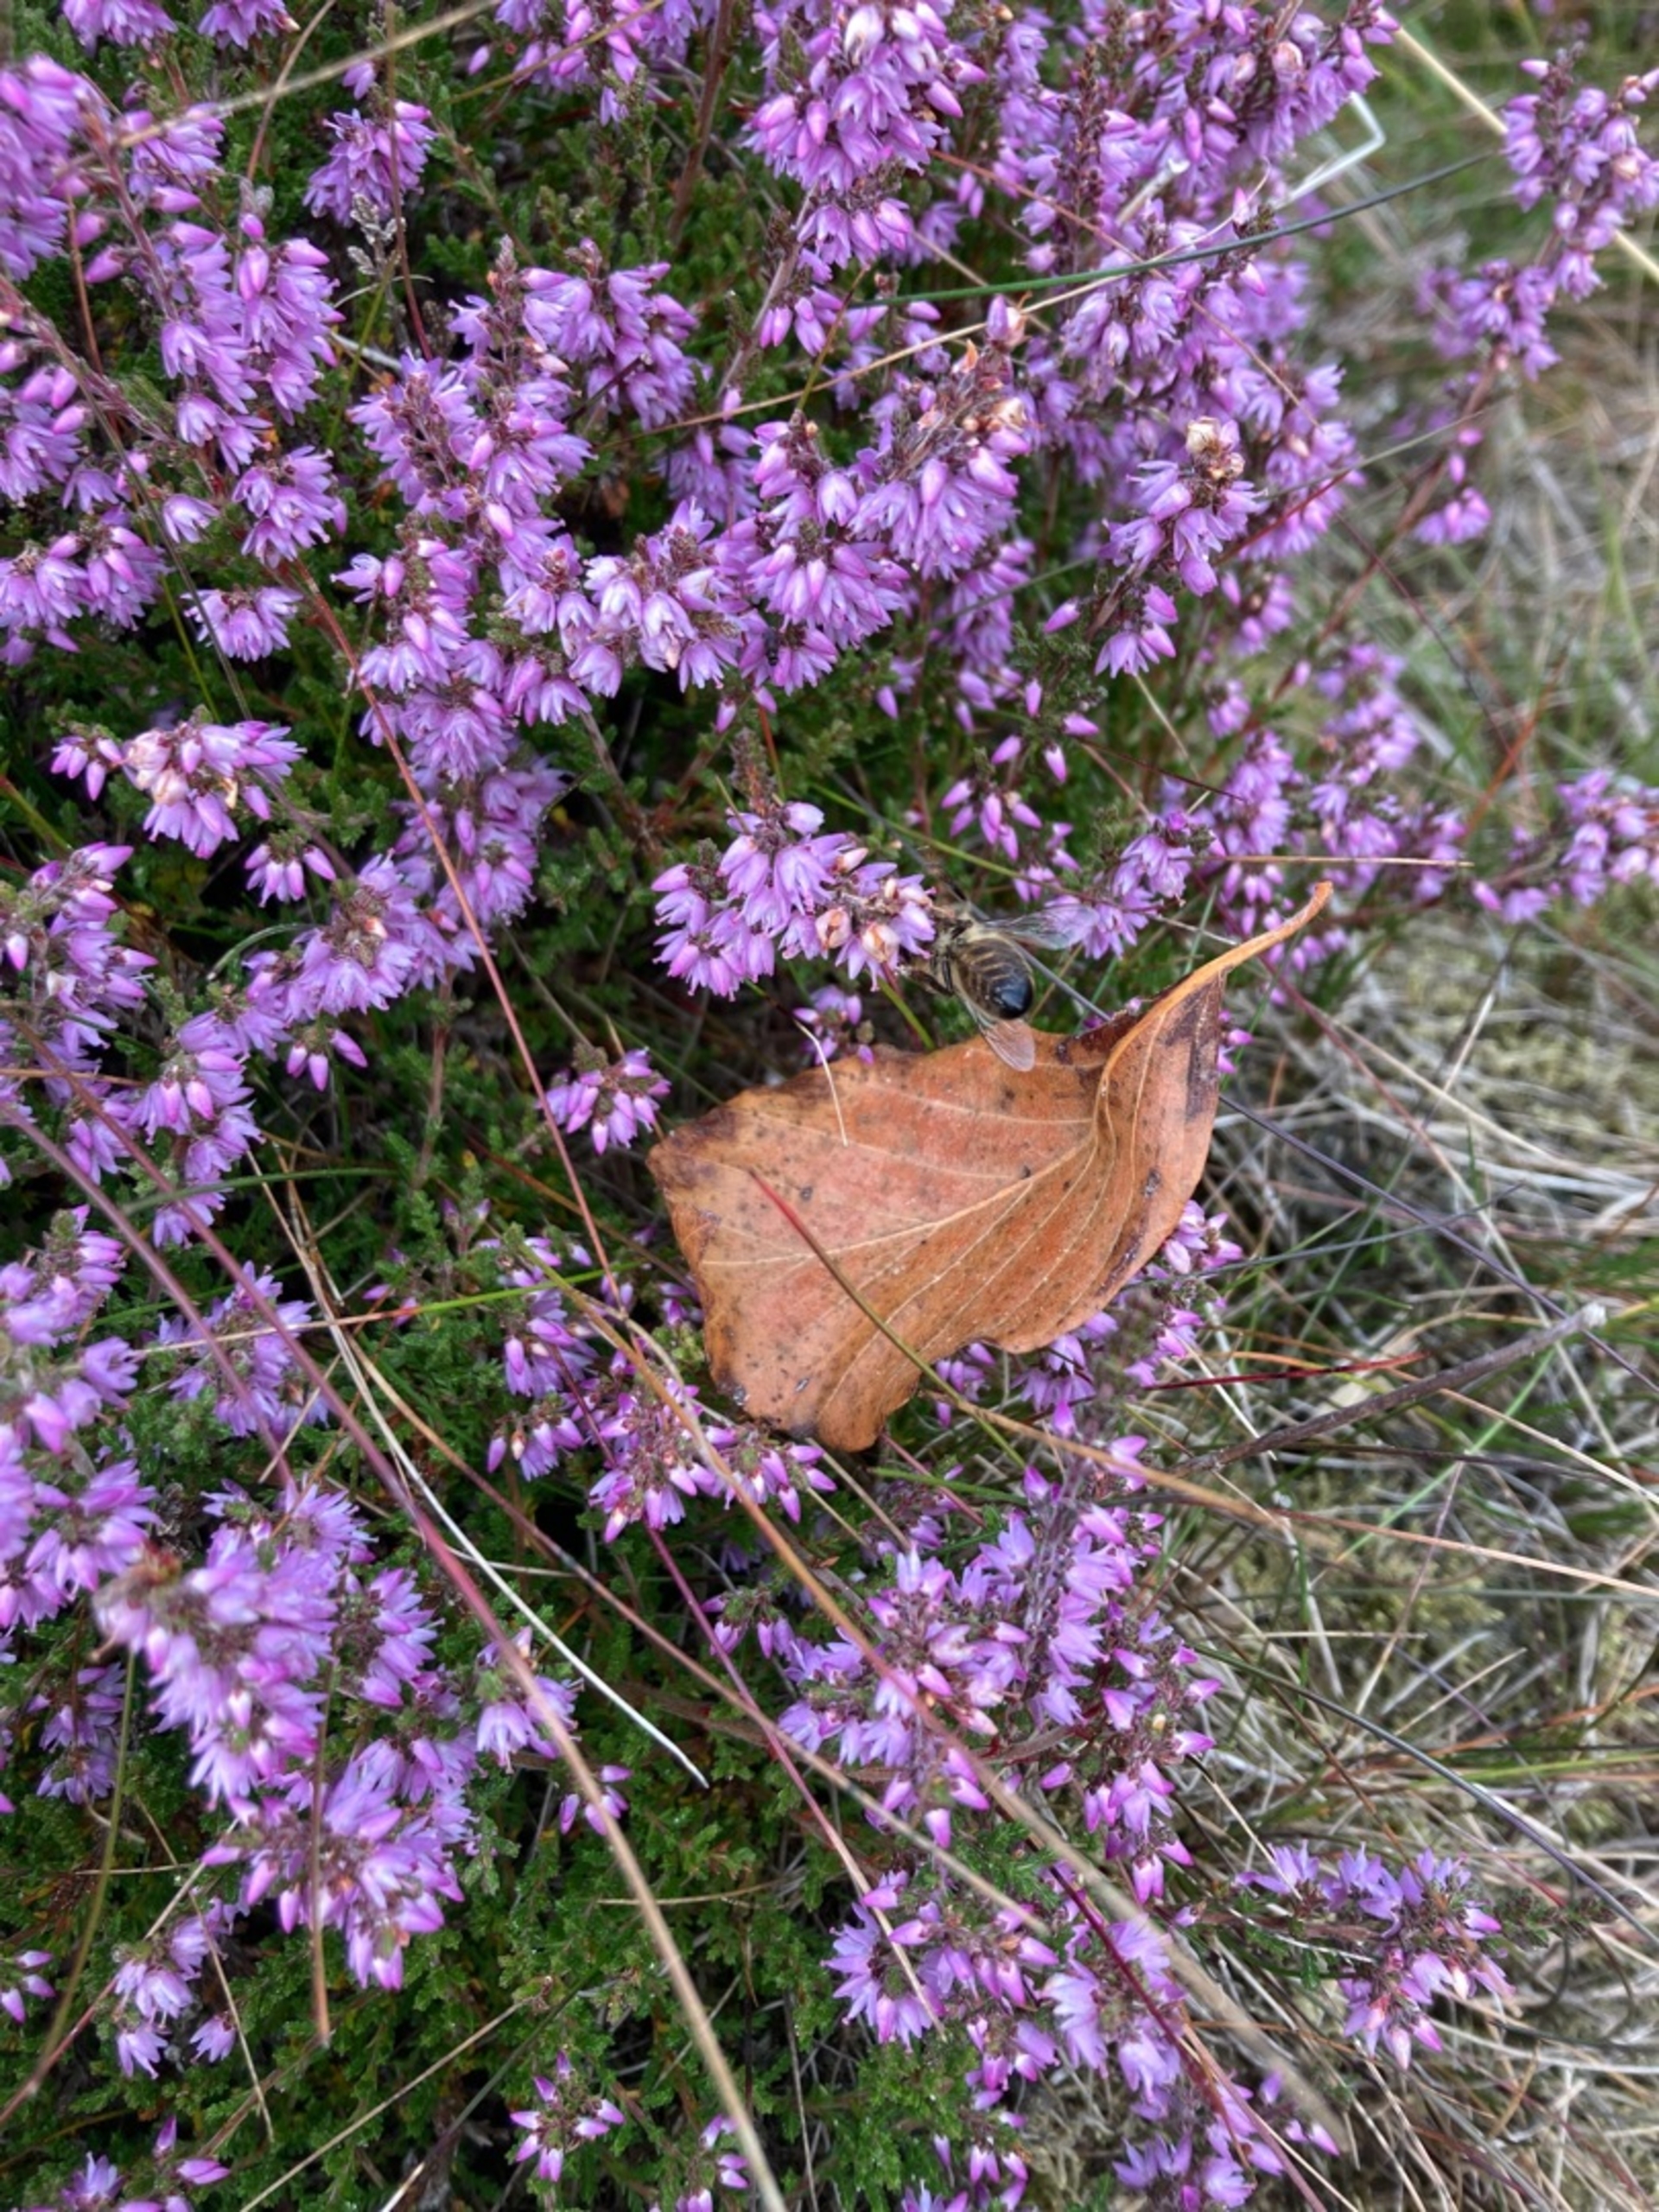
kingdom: Animalia
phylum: Arthropoda
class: Insecta
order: Hymenoptera
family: Apidae
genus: Apis
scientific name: Apis mellifera
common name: Honningbi
